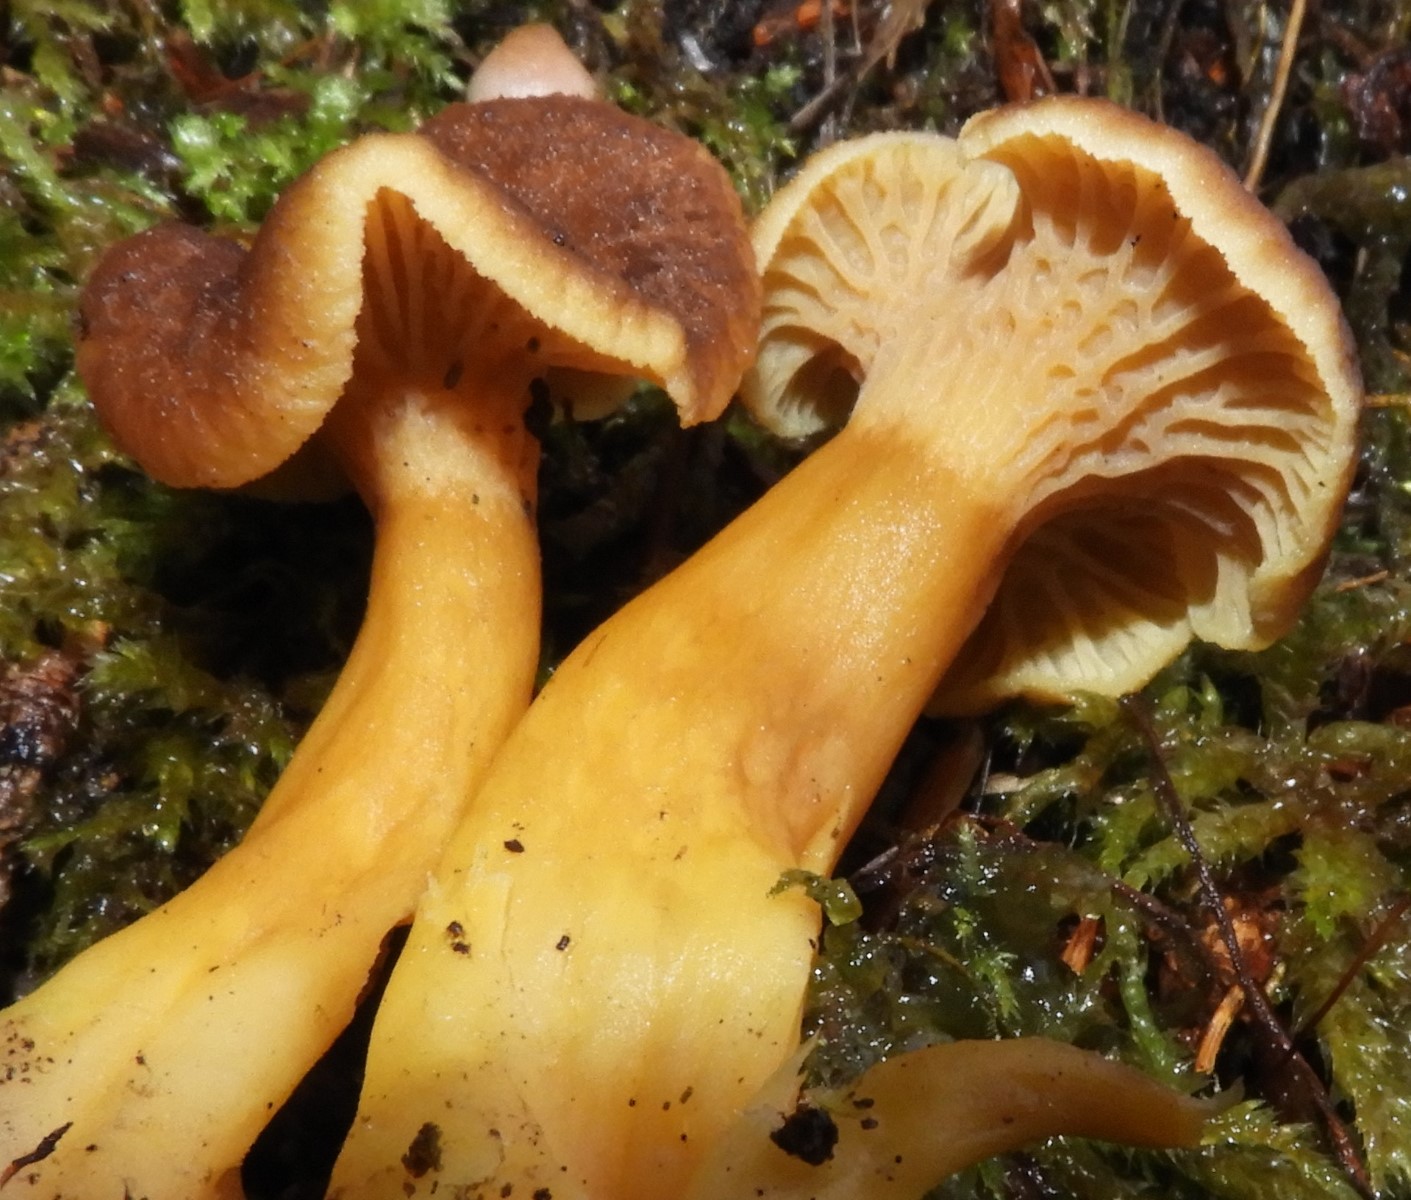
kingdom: Fungi
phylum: Basidiomycota
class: Agaricomycetes
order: Cantharellales
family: Hydnaceae
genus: Craterellus
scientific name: Craterellus tubaeformis
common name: tragt-kantarel
